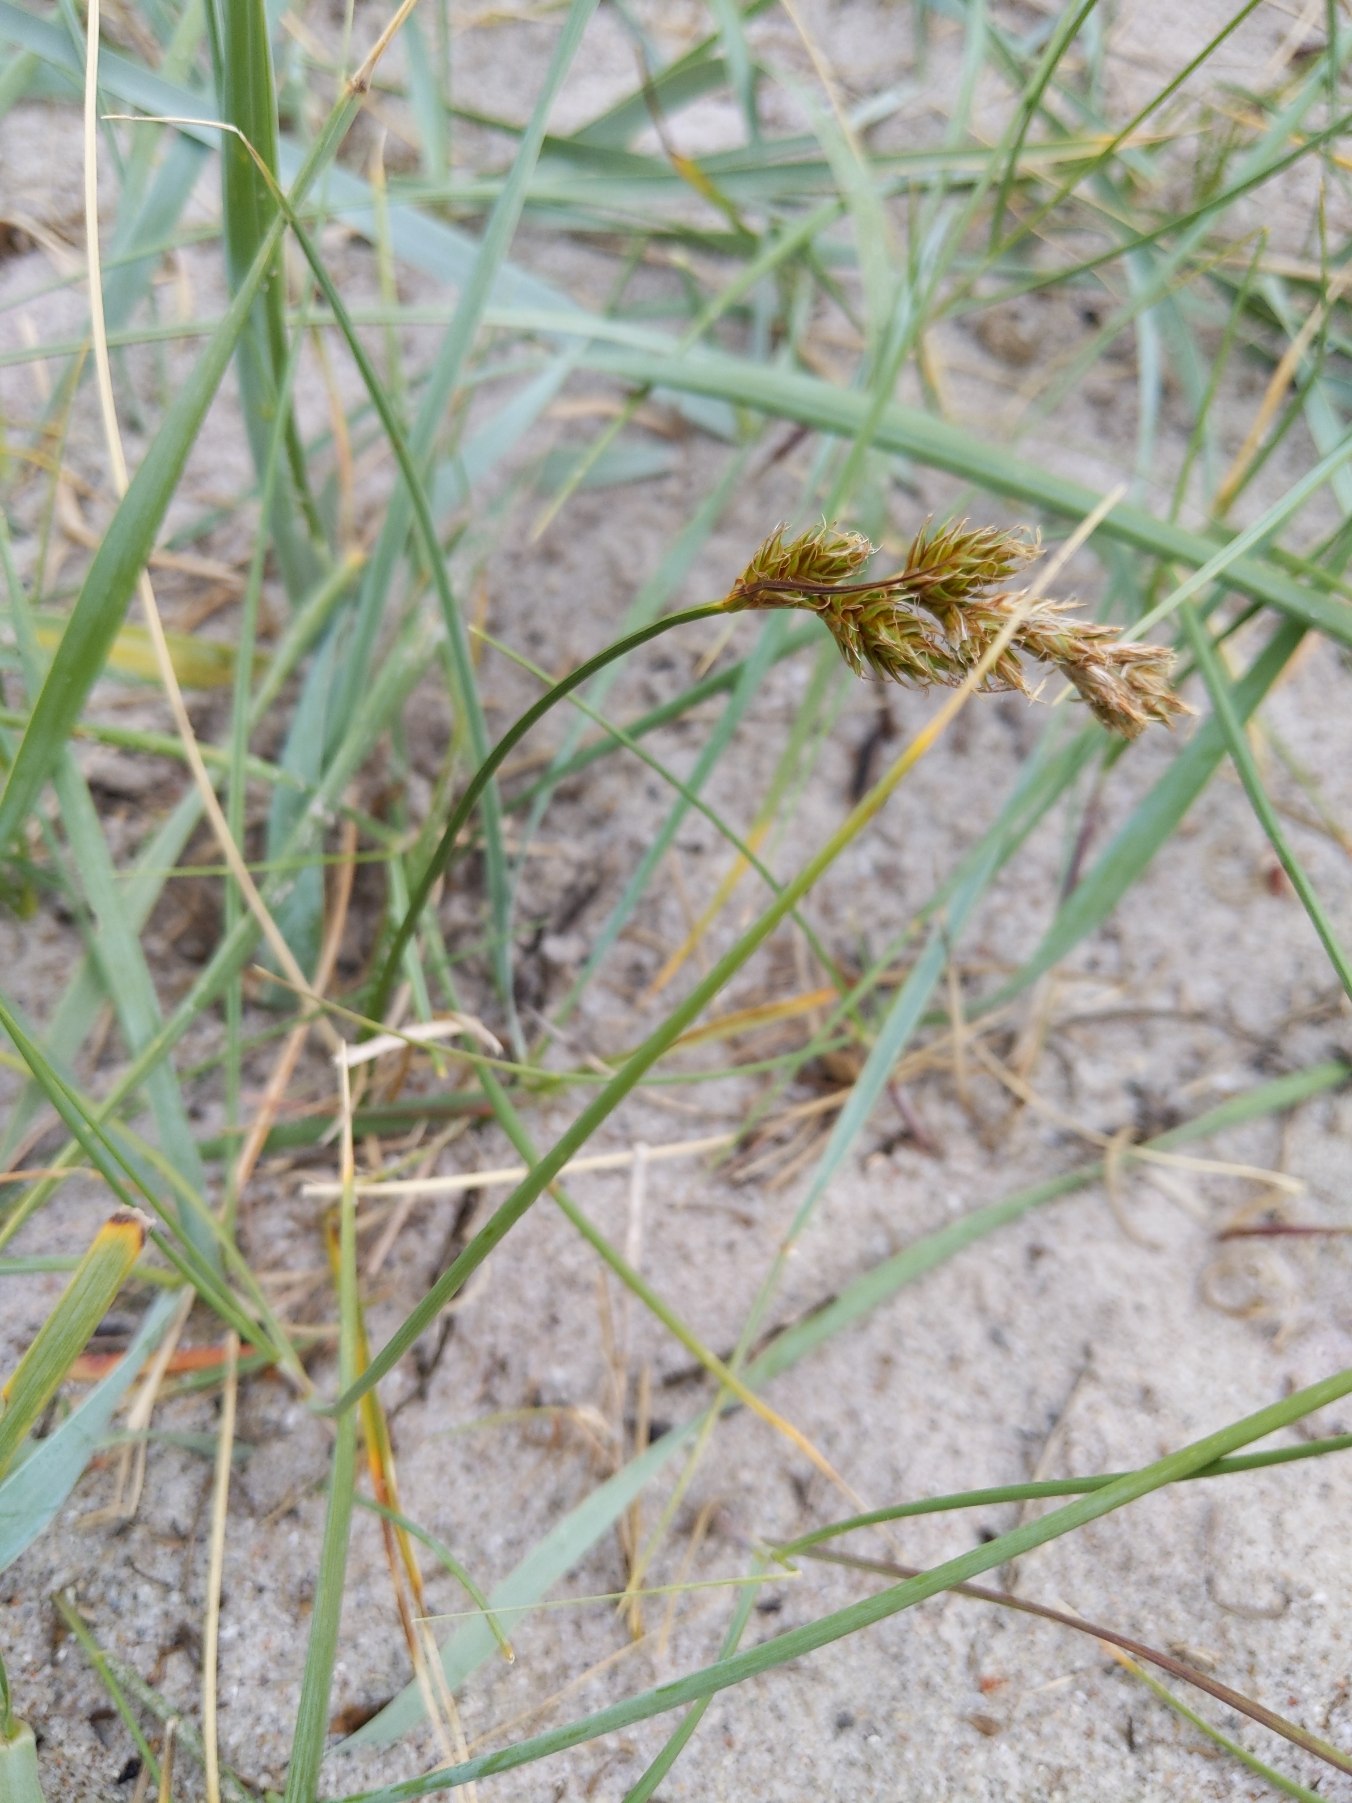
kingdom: Plantae
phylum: Tracheophyta
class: Liliopsida
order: Poales
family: Cyperaceae
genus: Carex
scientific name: Carex arenaria
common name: Sand-star
